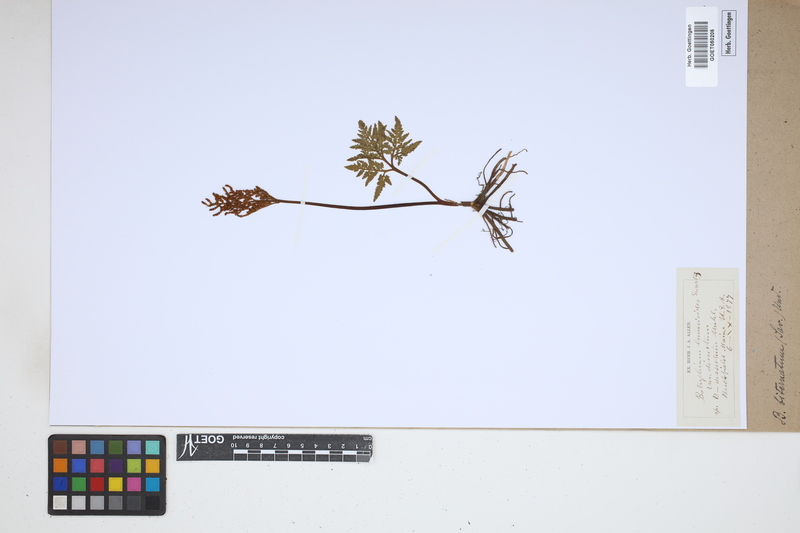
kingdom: Plantae
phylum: Tracheophyta
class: Polypodiopsida
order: Ophioglossales
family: Ophioglossaceae
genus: Sceptridium
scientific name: Sceptridium biternatum
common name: Sparse-lobed grapefern
